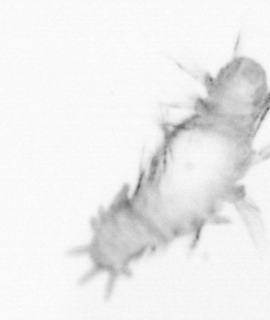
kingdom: Animalia
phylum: Annelida
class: Polychaeta
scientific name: Polychaeta
